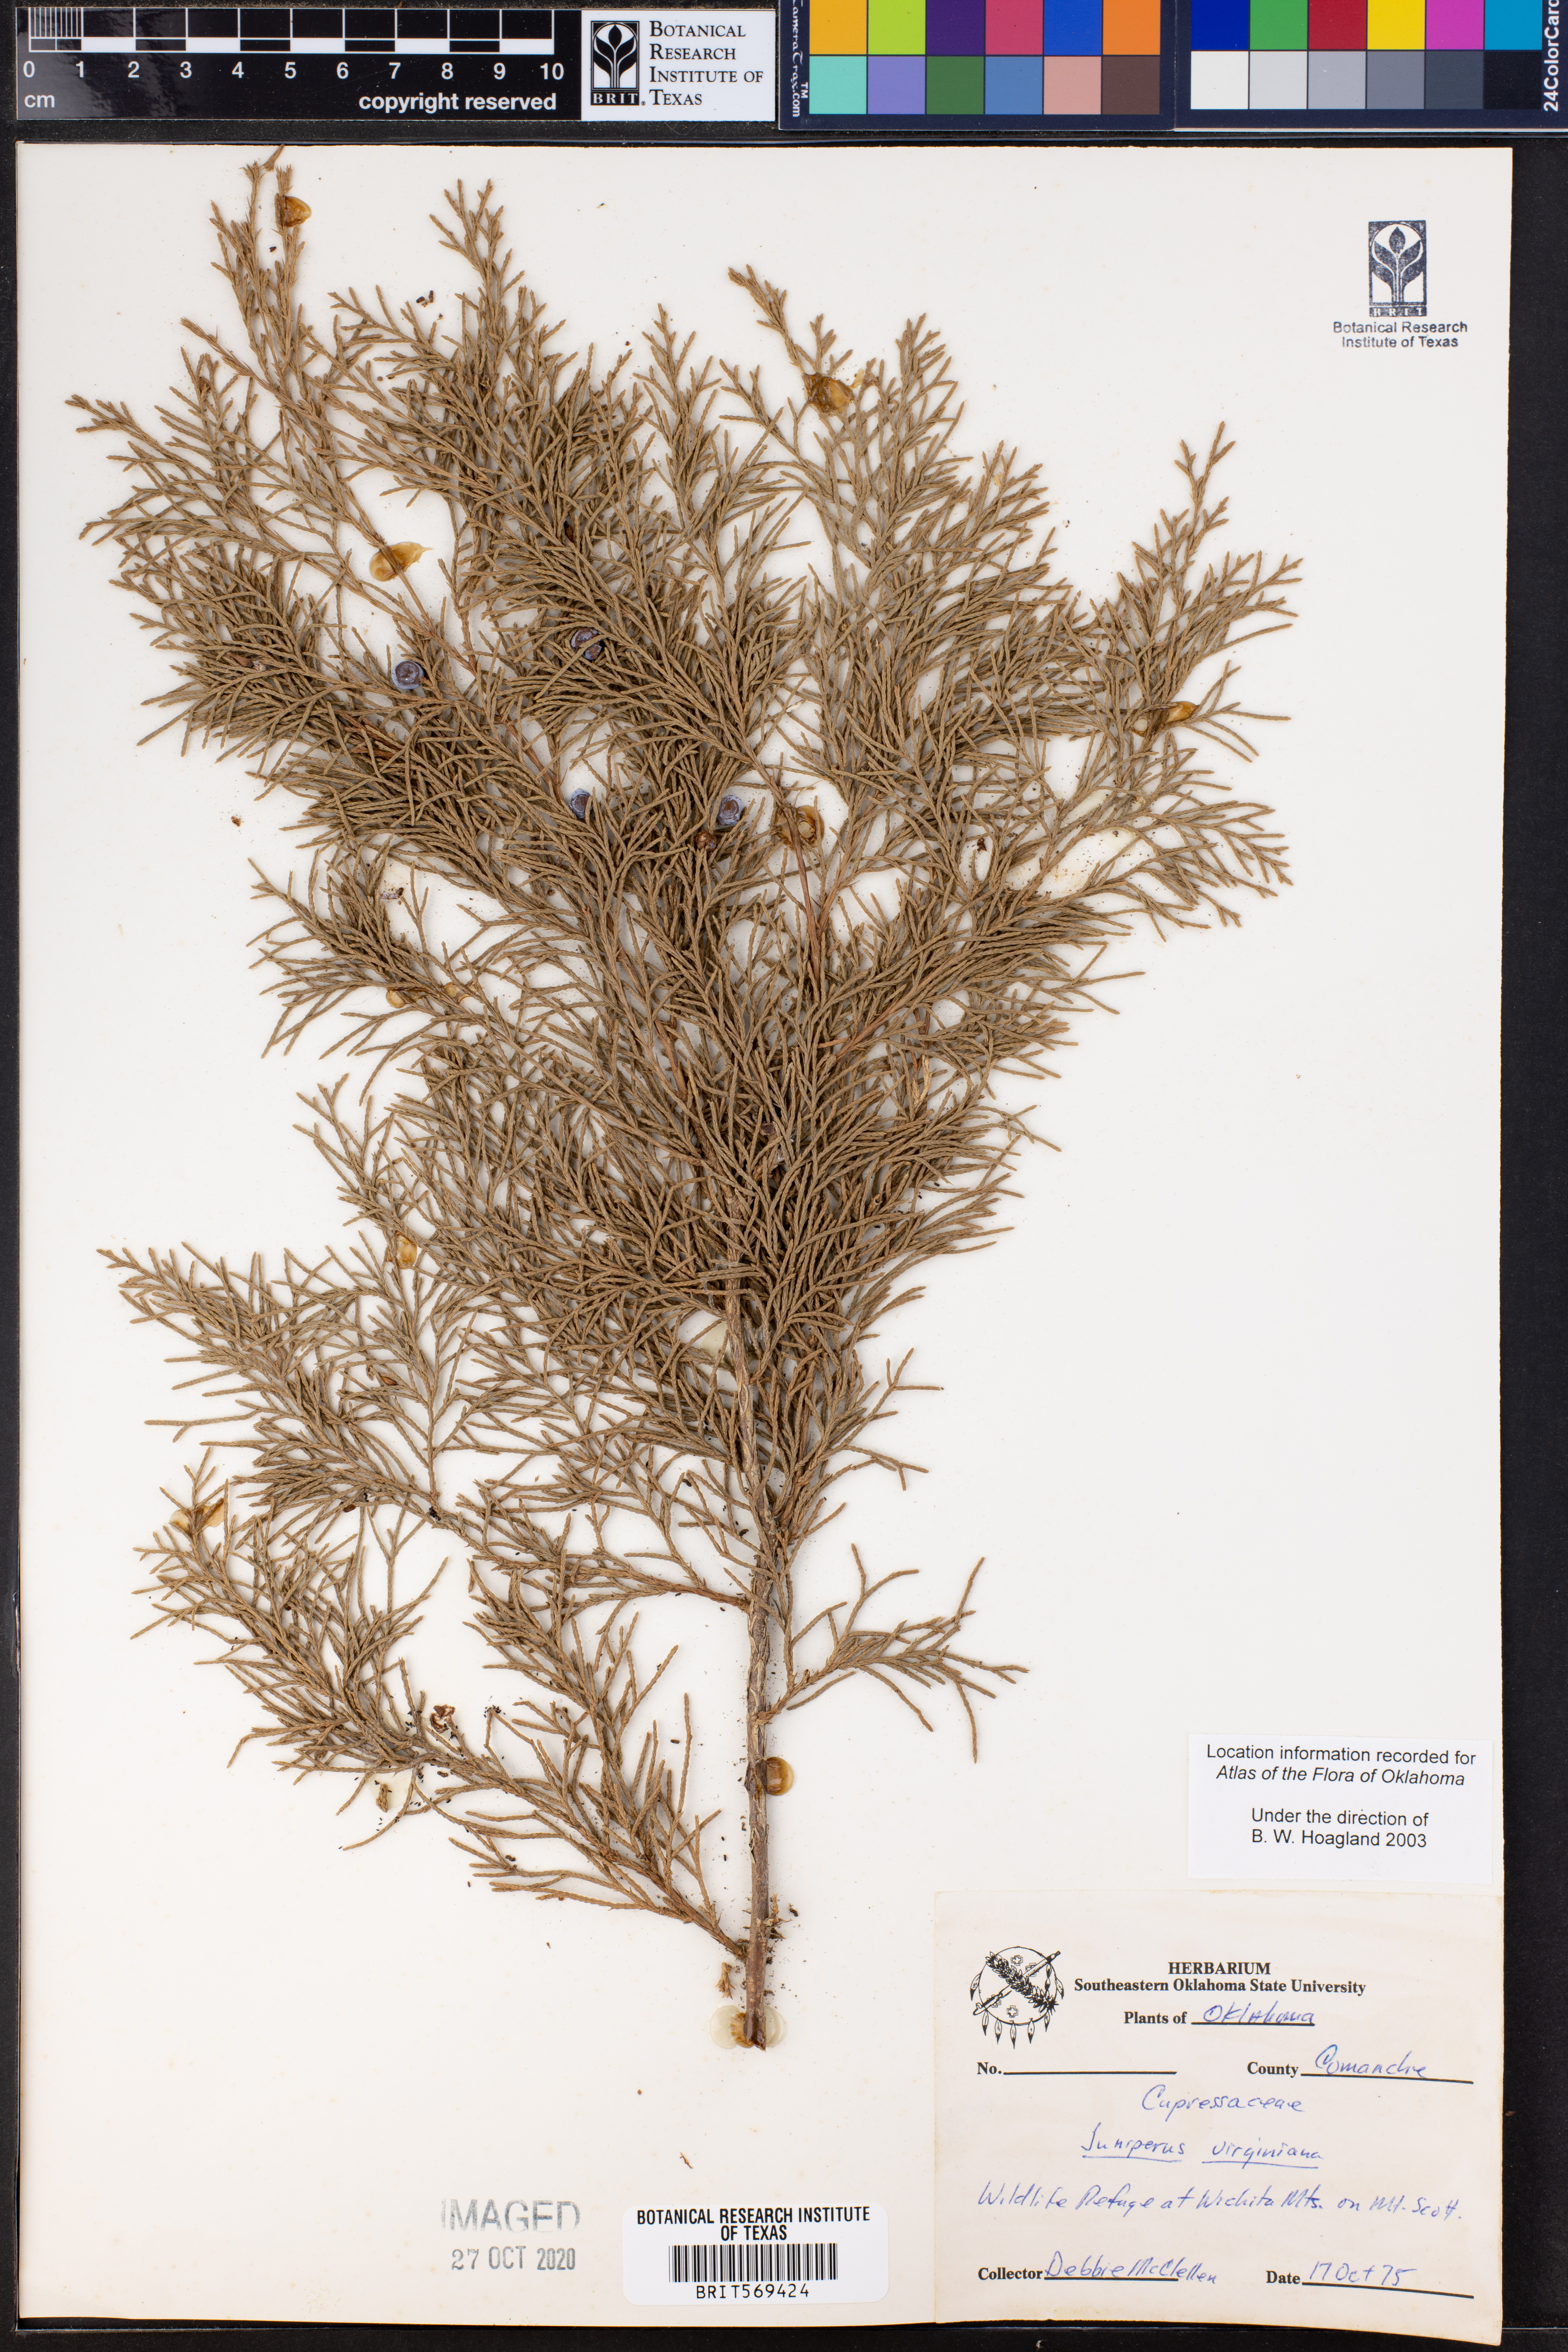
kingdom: Plantae
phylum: Tracheophyta
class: Pinopsida
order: Pinales
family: Cupressaceae
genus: Juniperus
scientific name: Juniperus virginiana
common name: Red juniper
